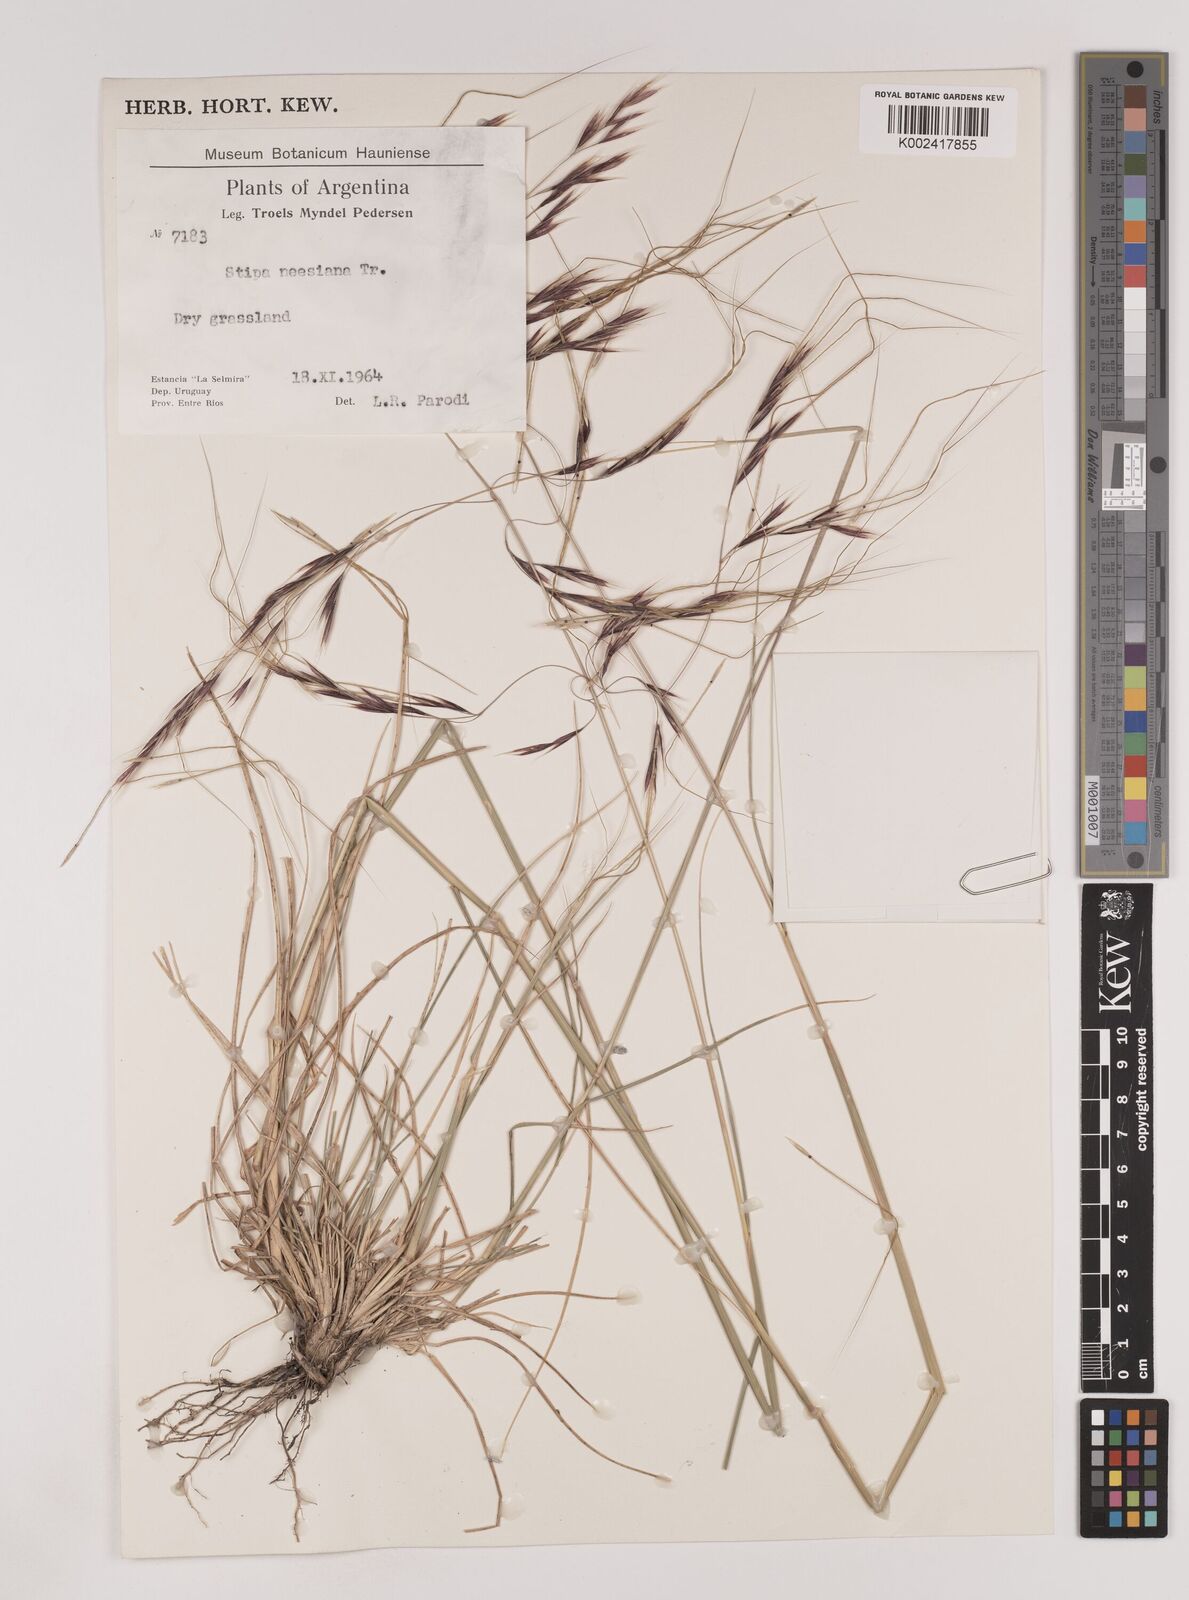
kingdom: Plantae
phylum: Tracheophyta
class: Liliopsida
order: Poales
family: Poaceae
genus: Nassella
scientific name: Nassella neesiana
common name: American needle-grass
